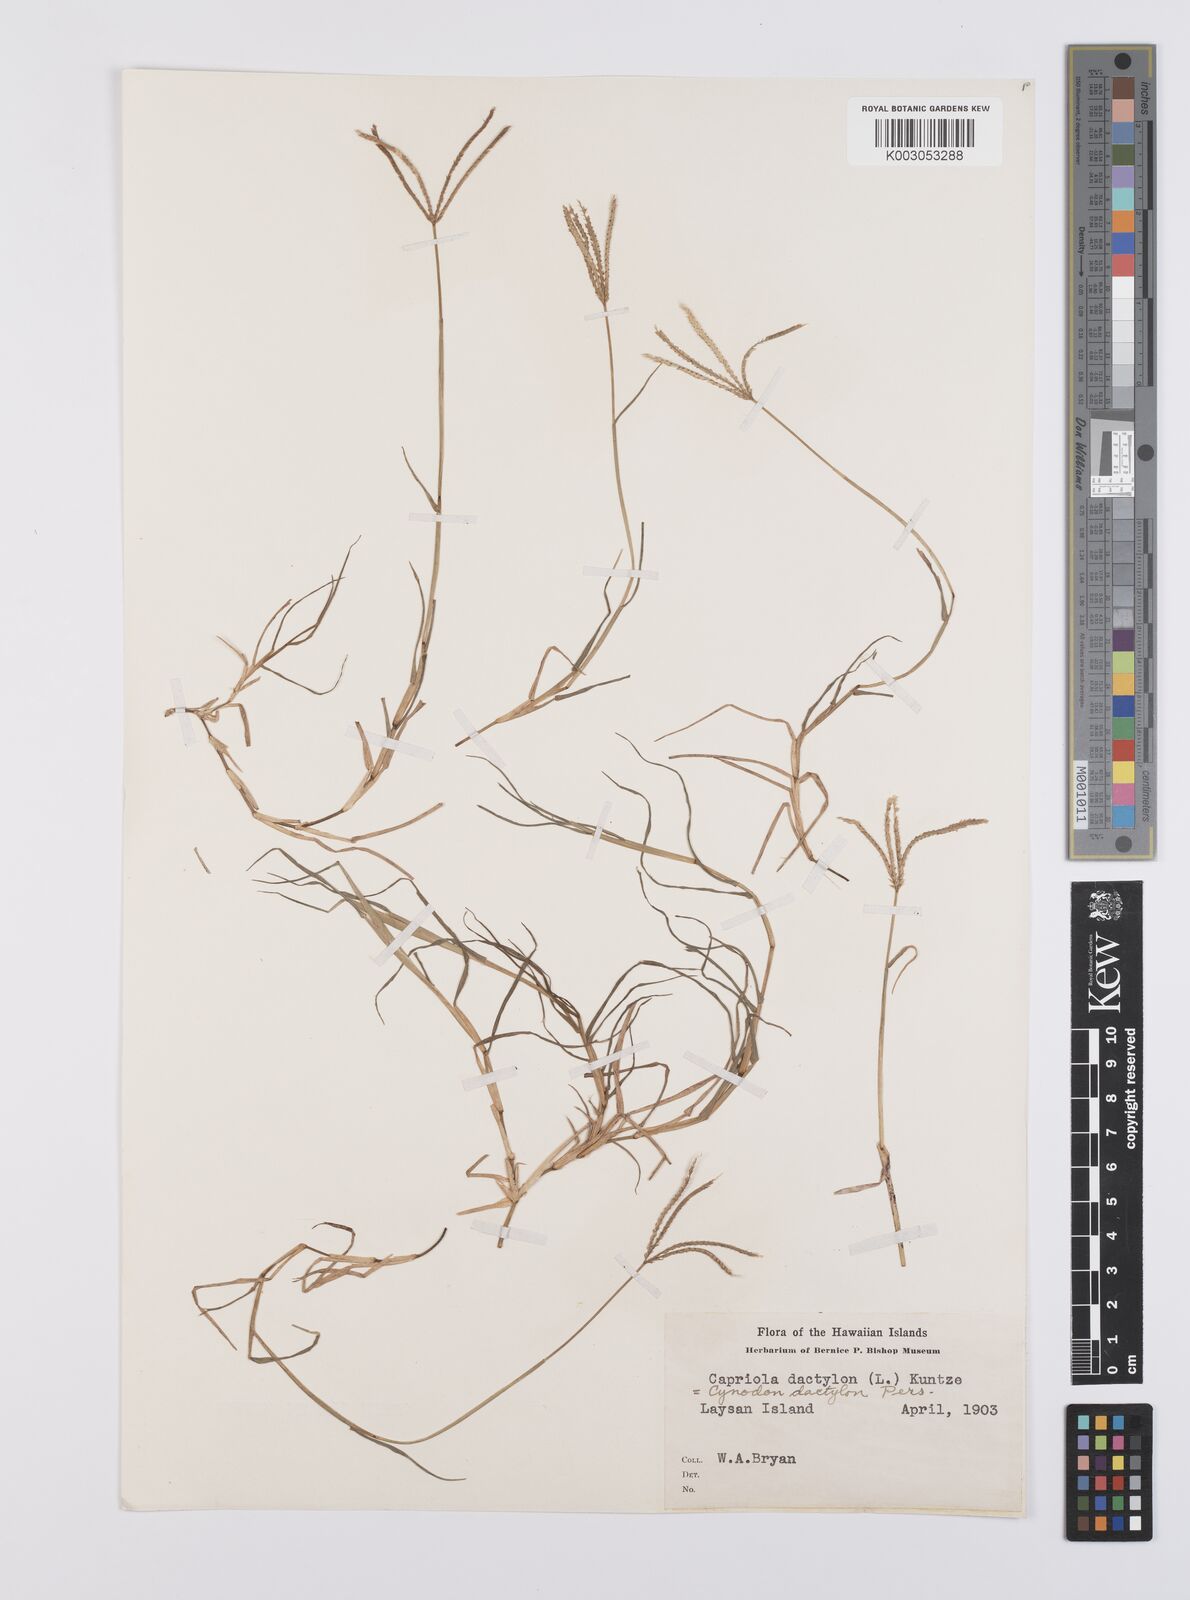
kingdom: Plantae
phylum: Tracheophyta
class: Liliopsida
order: Poales
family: Poaceae
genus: Cynodon
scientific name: Cynodon dactylon
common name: Bermuda grass
